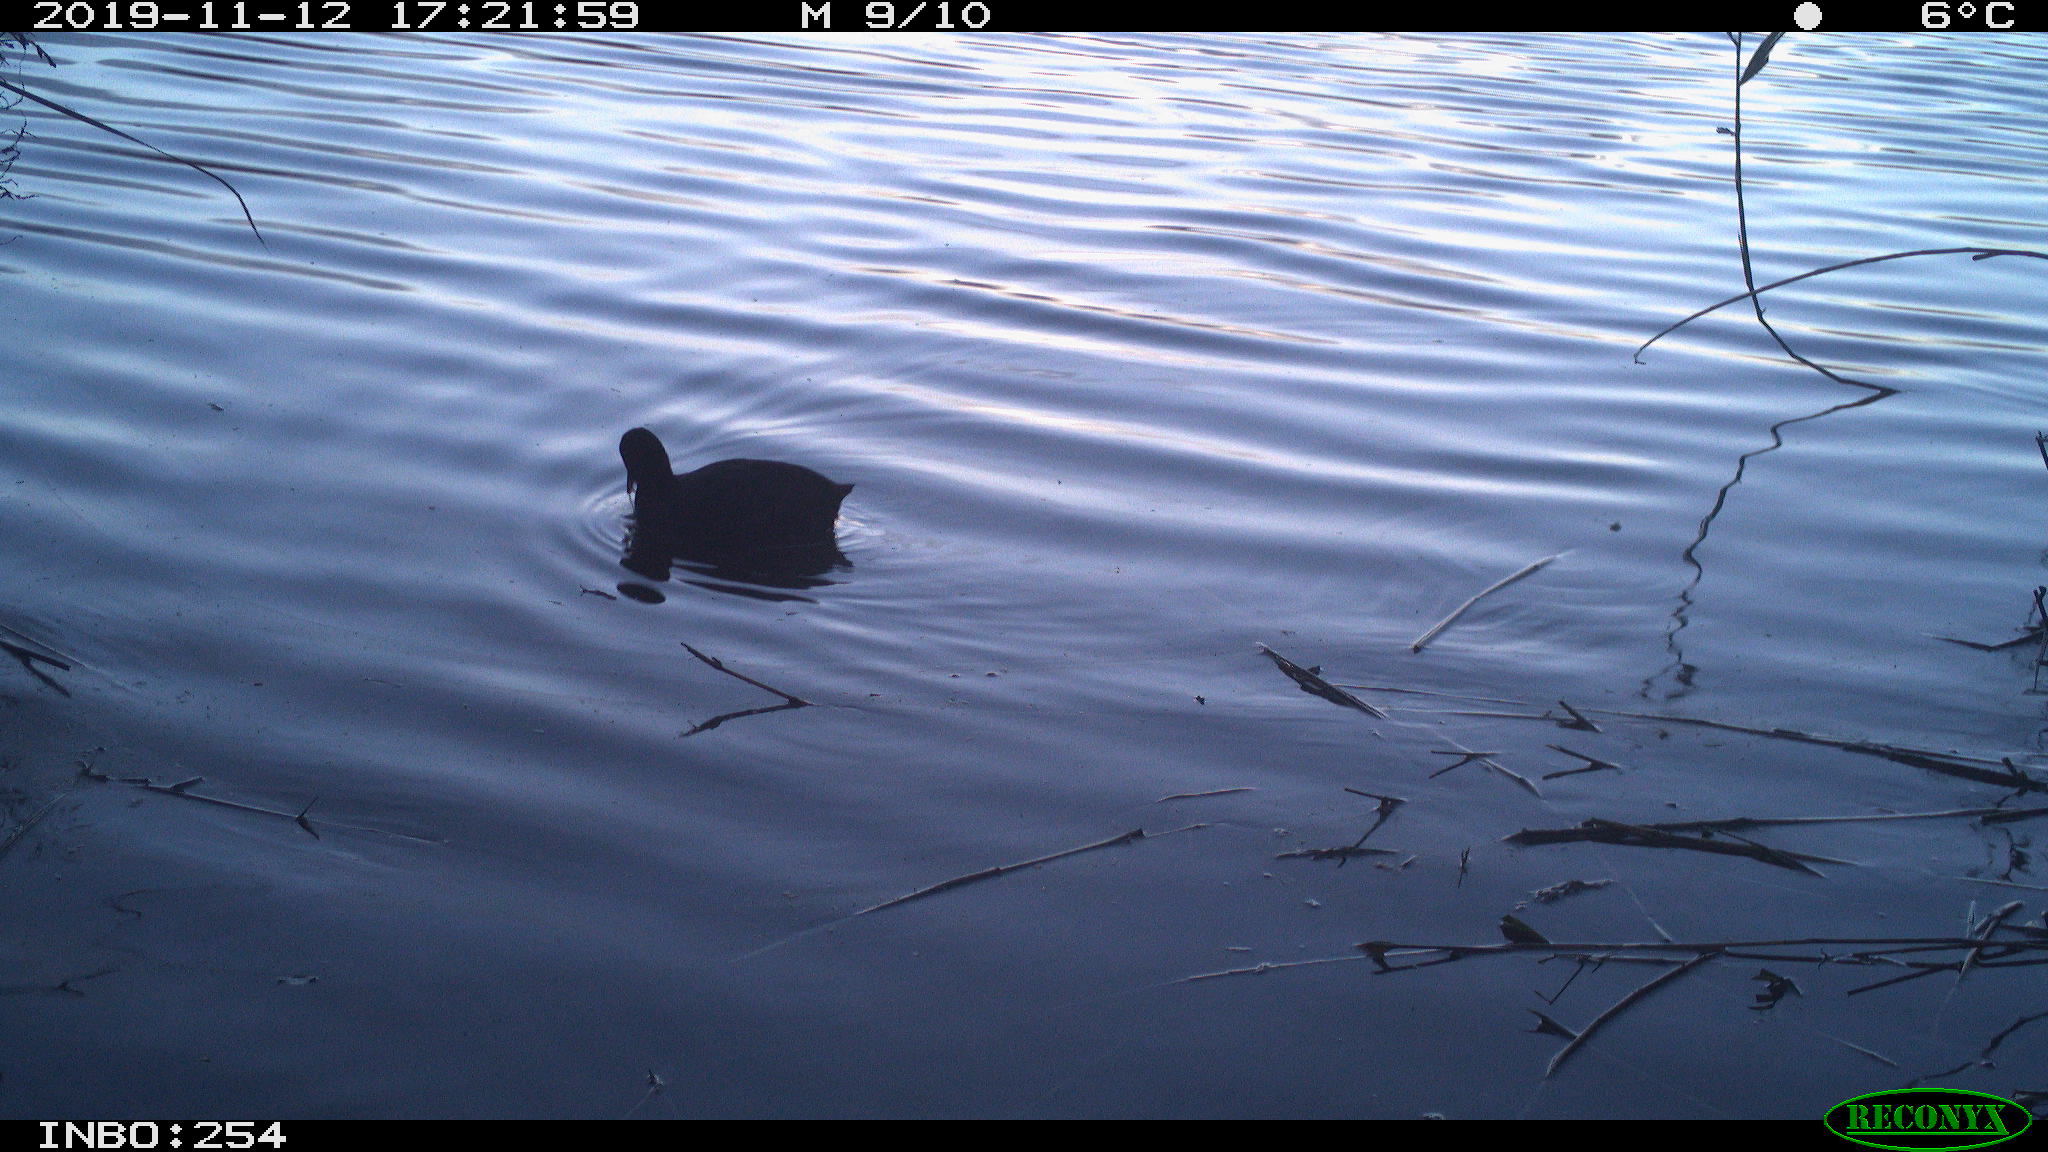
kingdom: Animalia
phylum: Chordata
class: Aves
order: Gruiformes
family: Rallidae
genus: Fulica
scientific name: Fulica atra
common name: Eurasian coot
